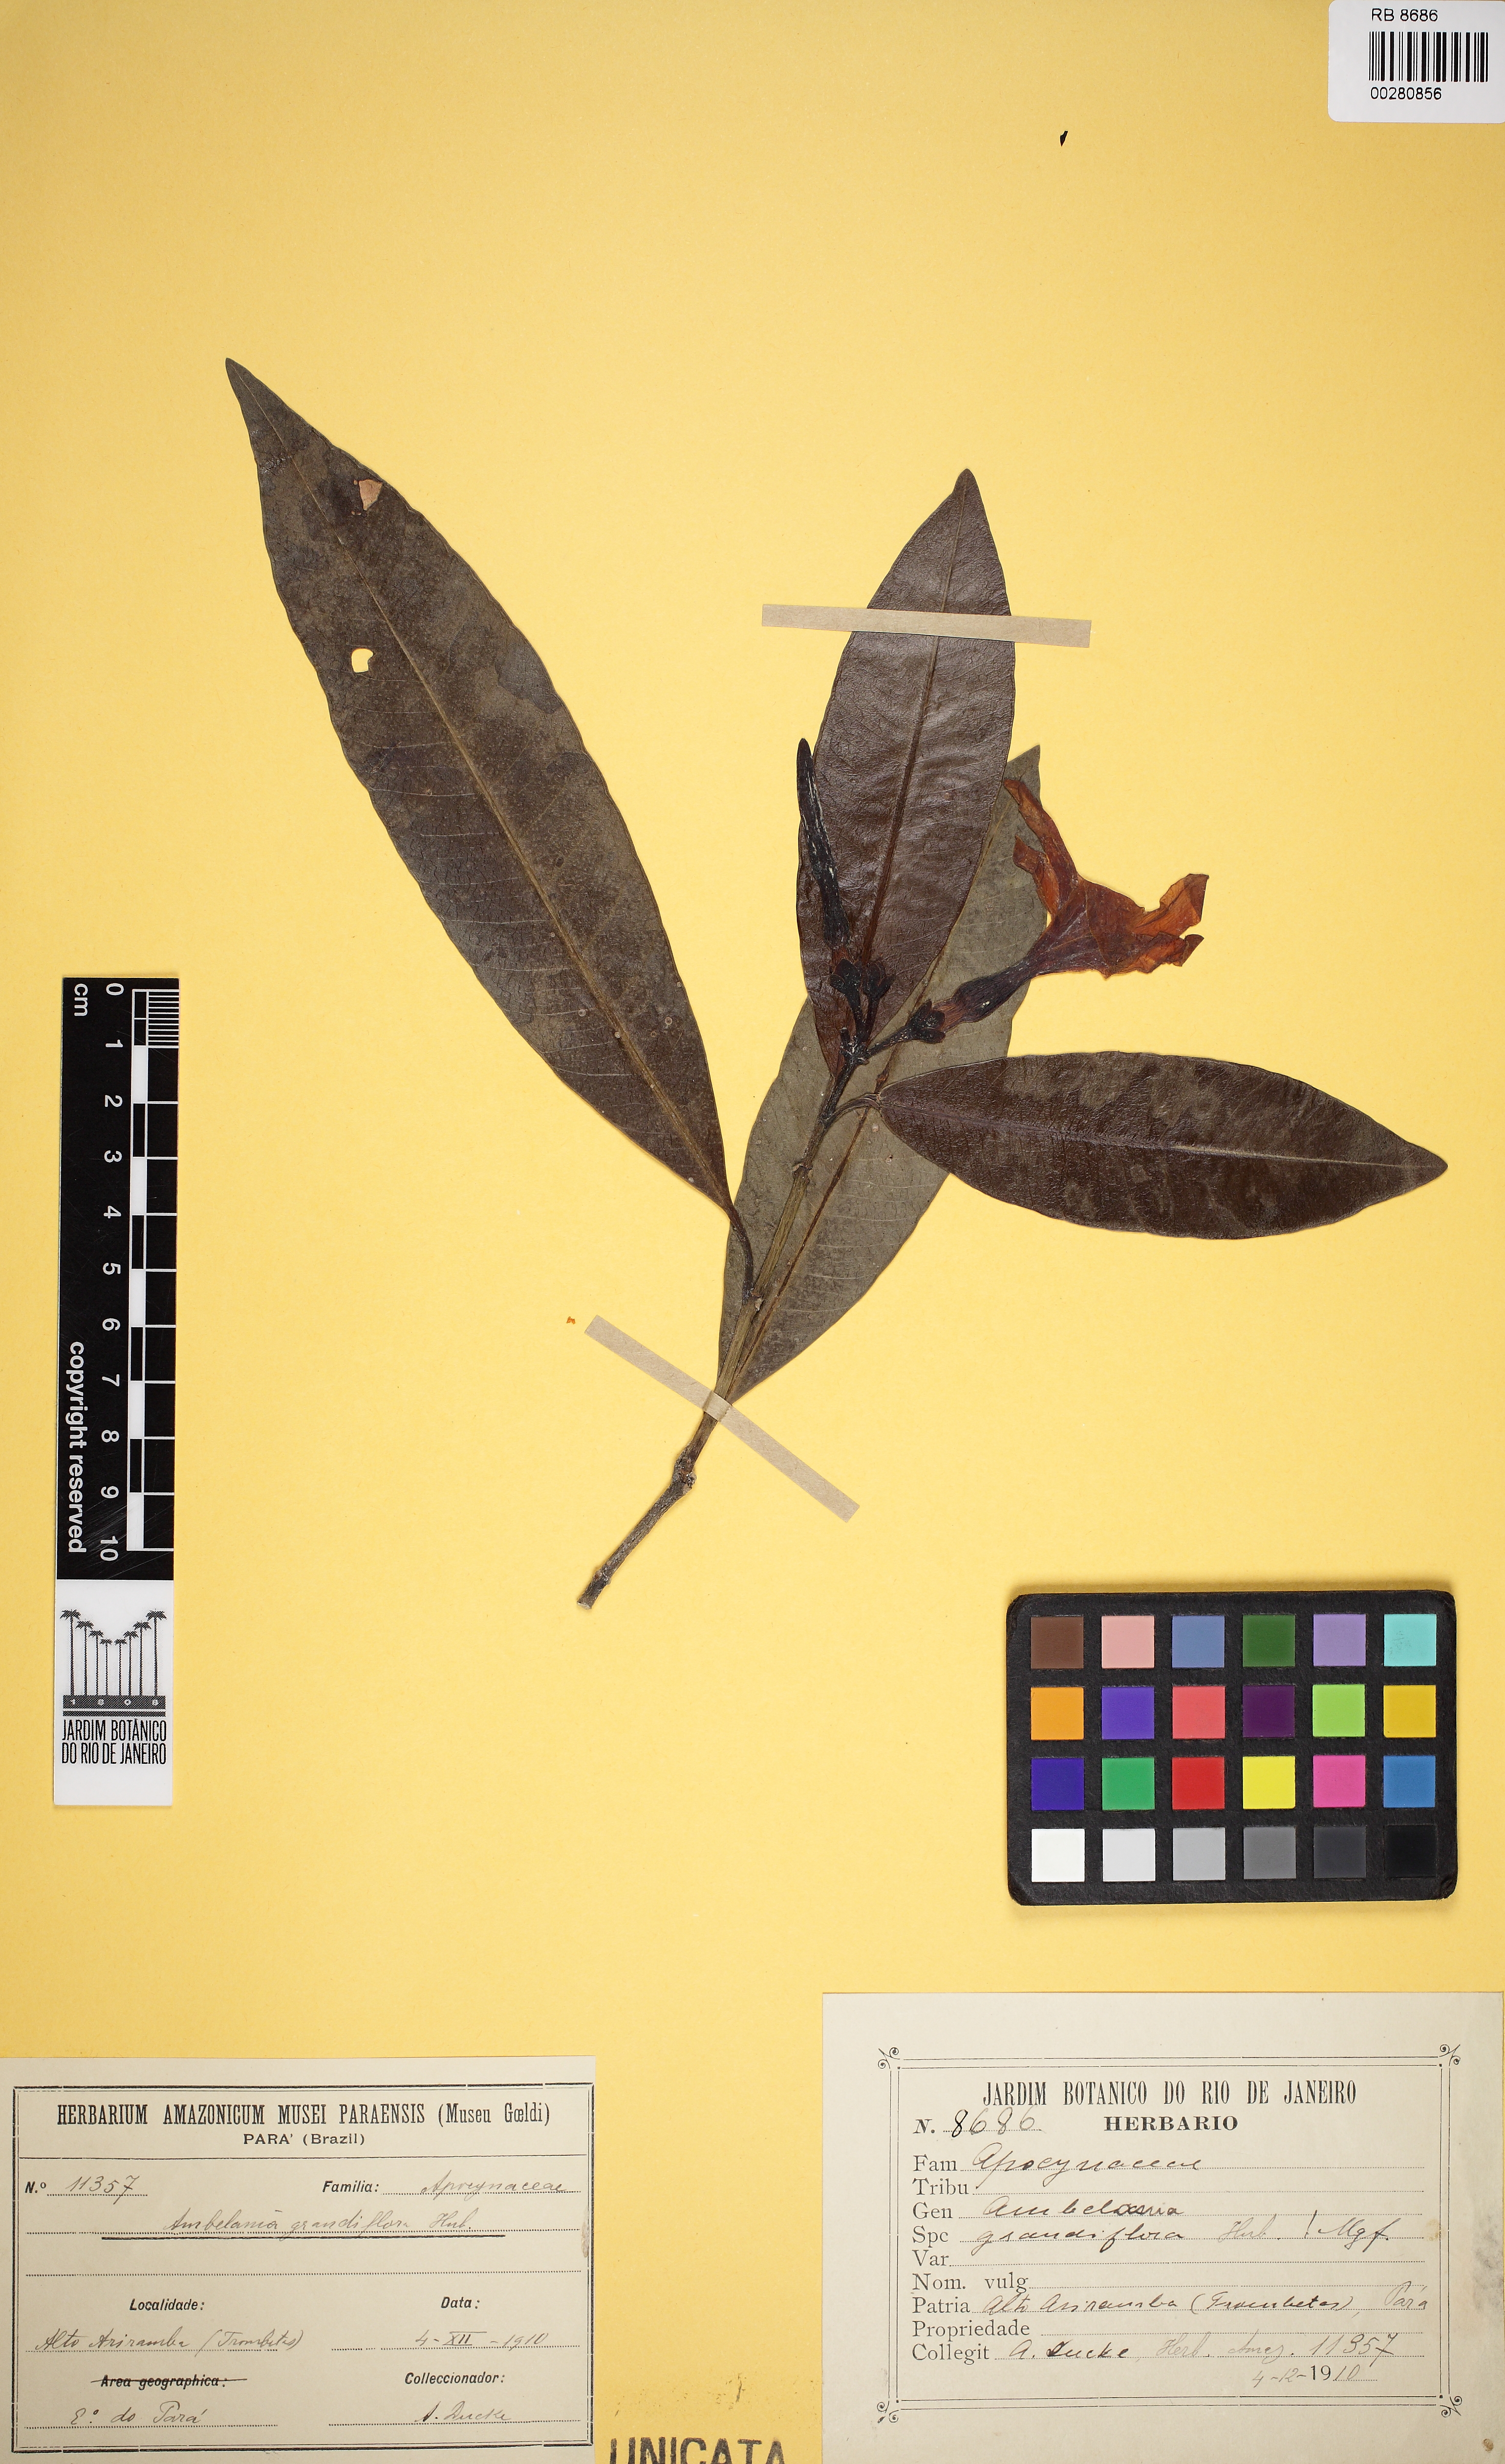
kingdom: Plantae
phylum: Tracheophyta
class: Magnoliopsida
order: Gentianales
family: Apocynaceae
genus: Spongiosperma
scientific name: Spongiosperma grandiflorum
